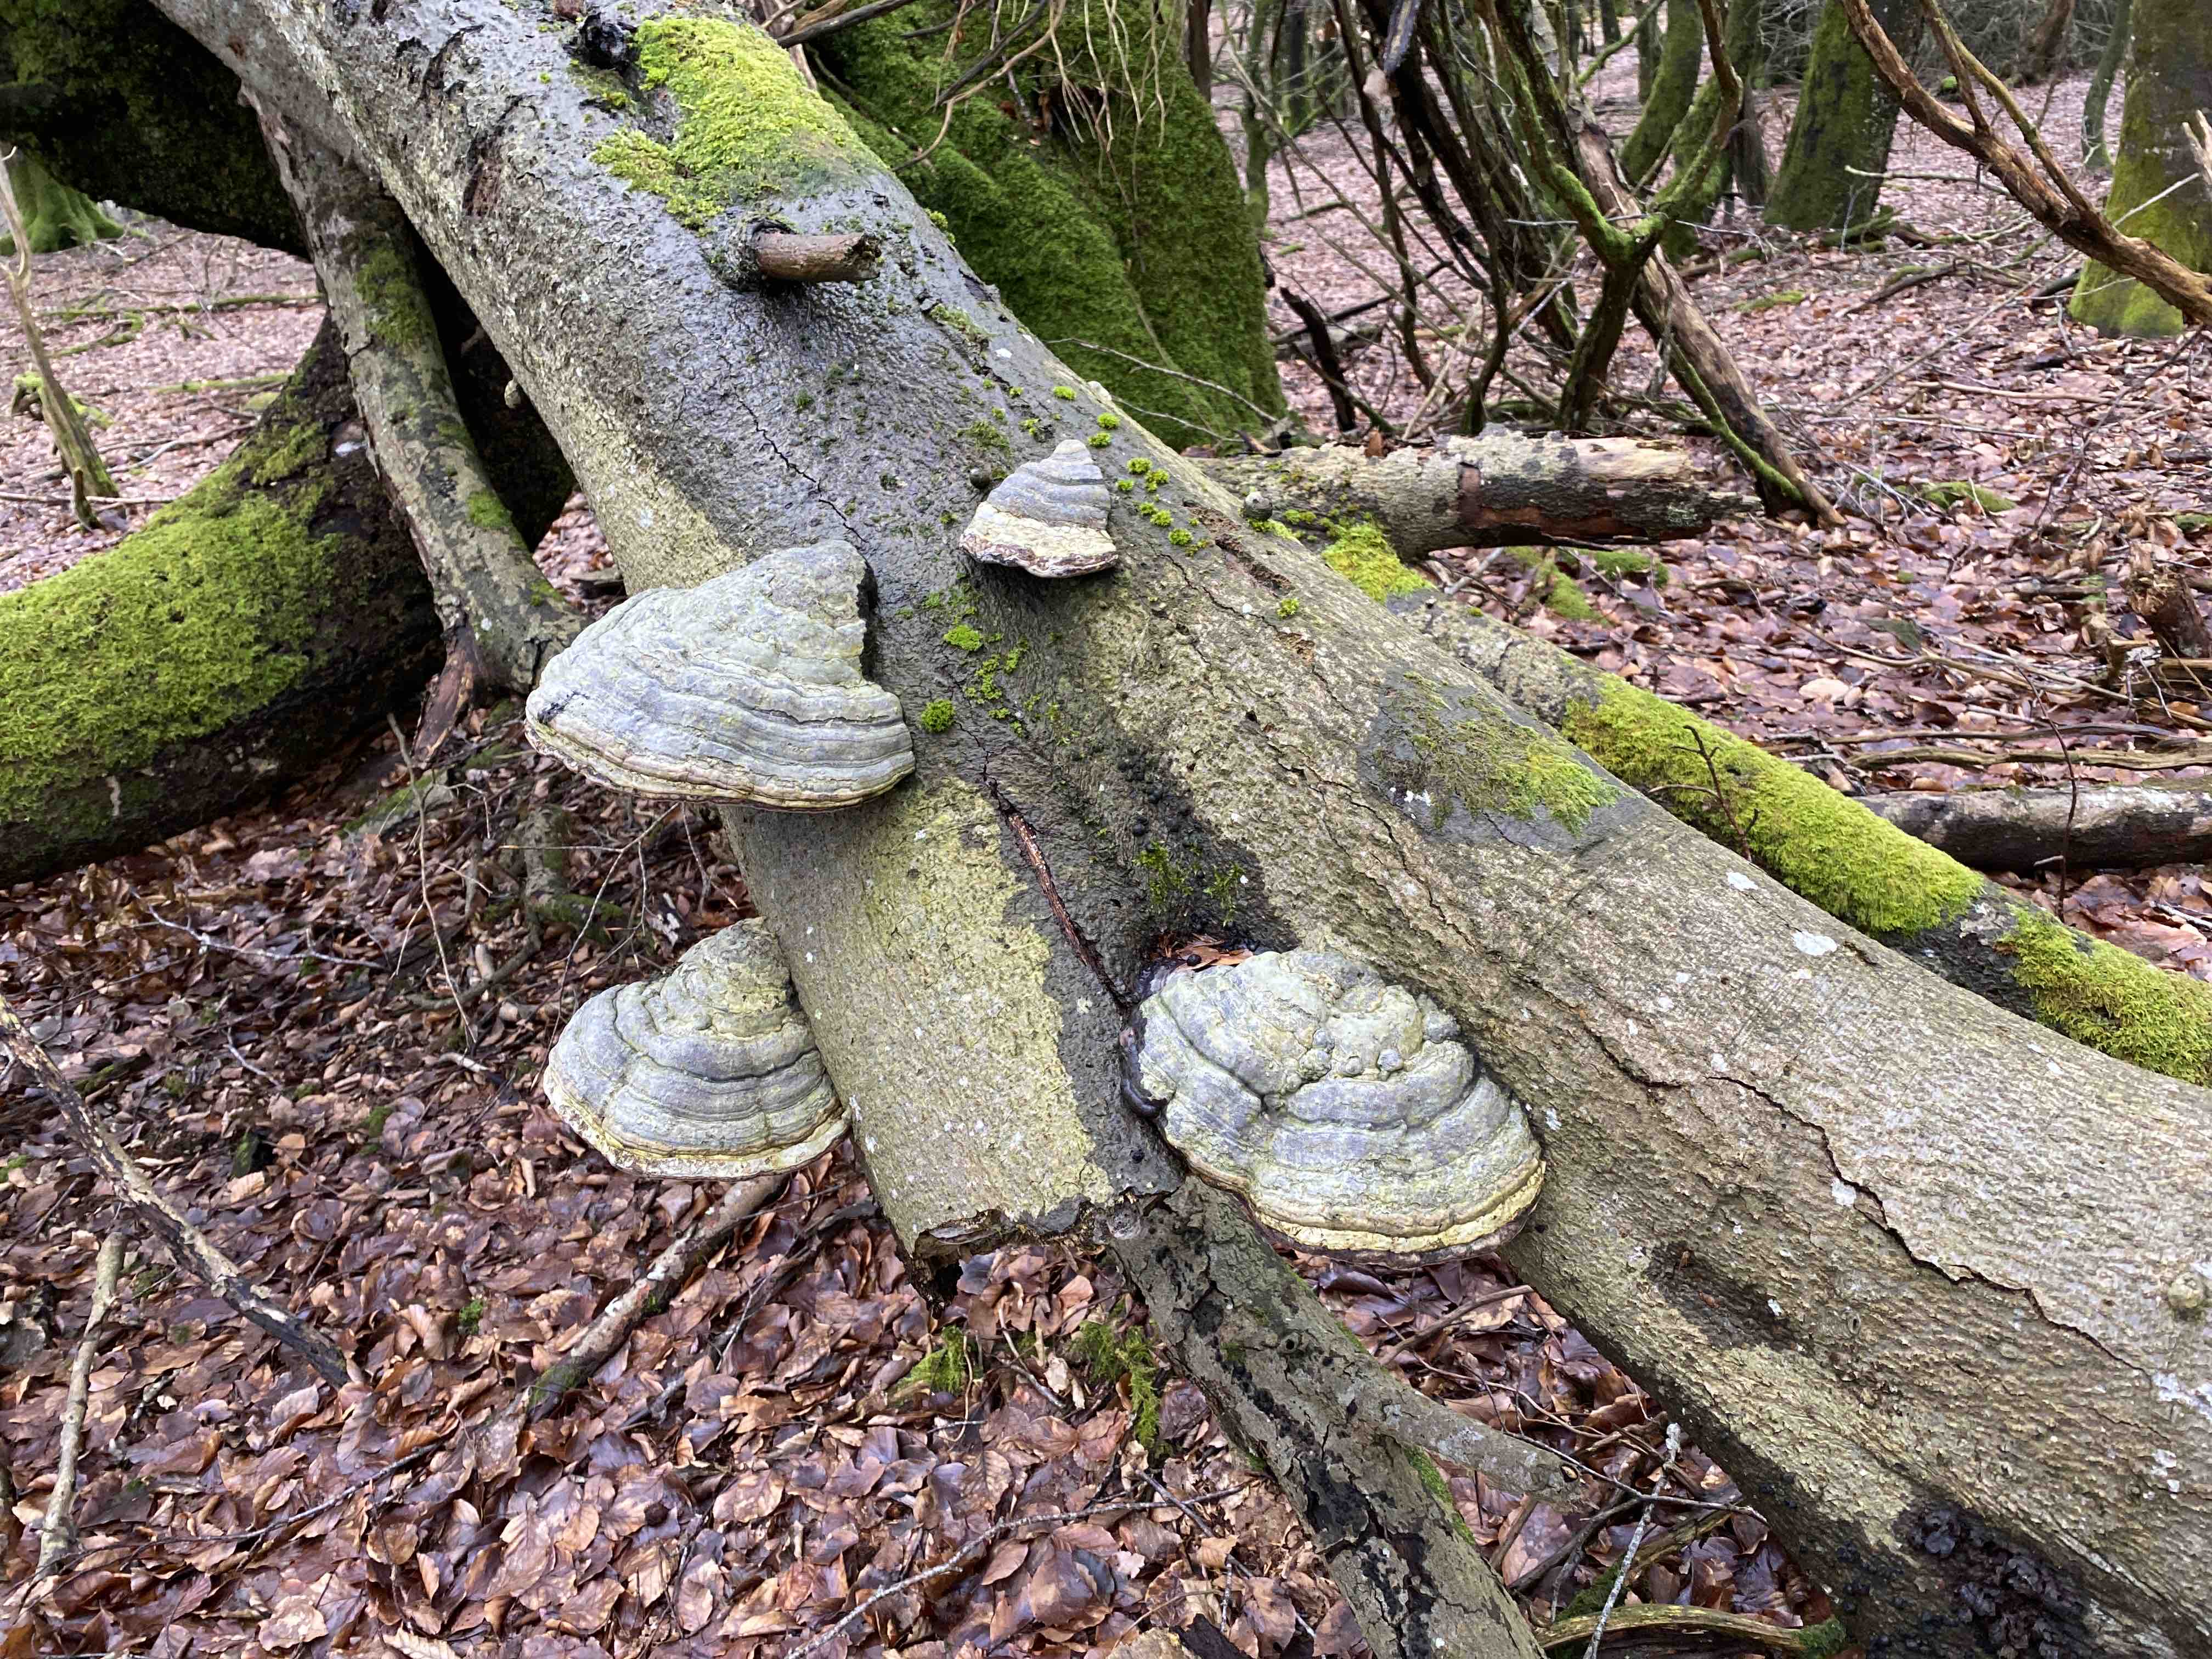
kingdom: Fungi
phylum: Basidiomycota
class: Agaricomycetes
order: Polyporales
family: Polyporaceae
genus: Fomes
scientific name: Fomes fomentarius
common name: tøndersvamp
